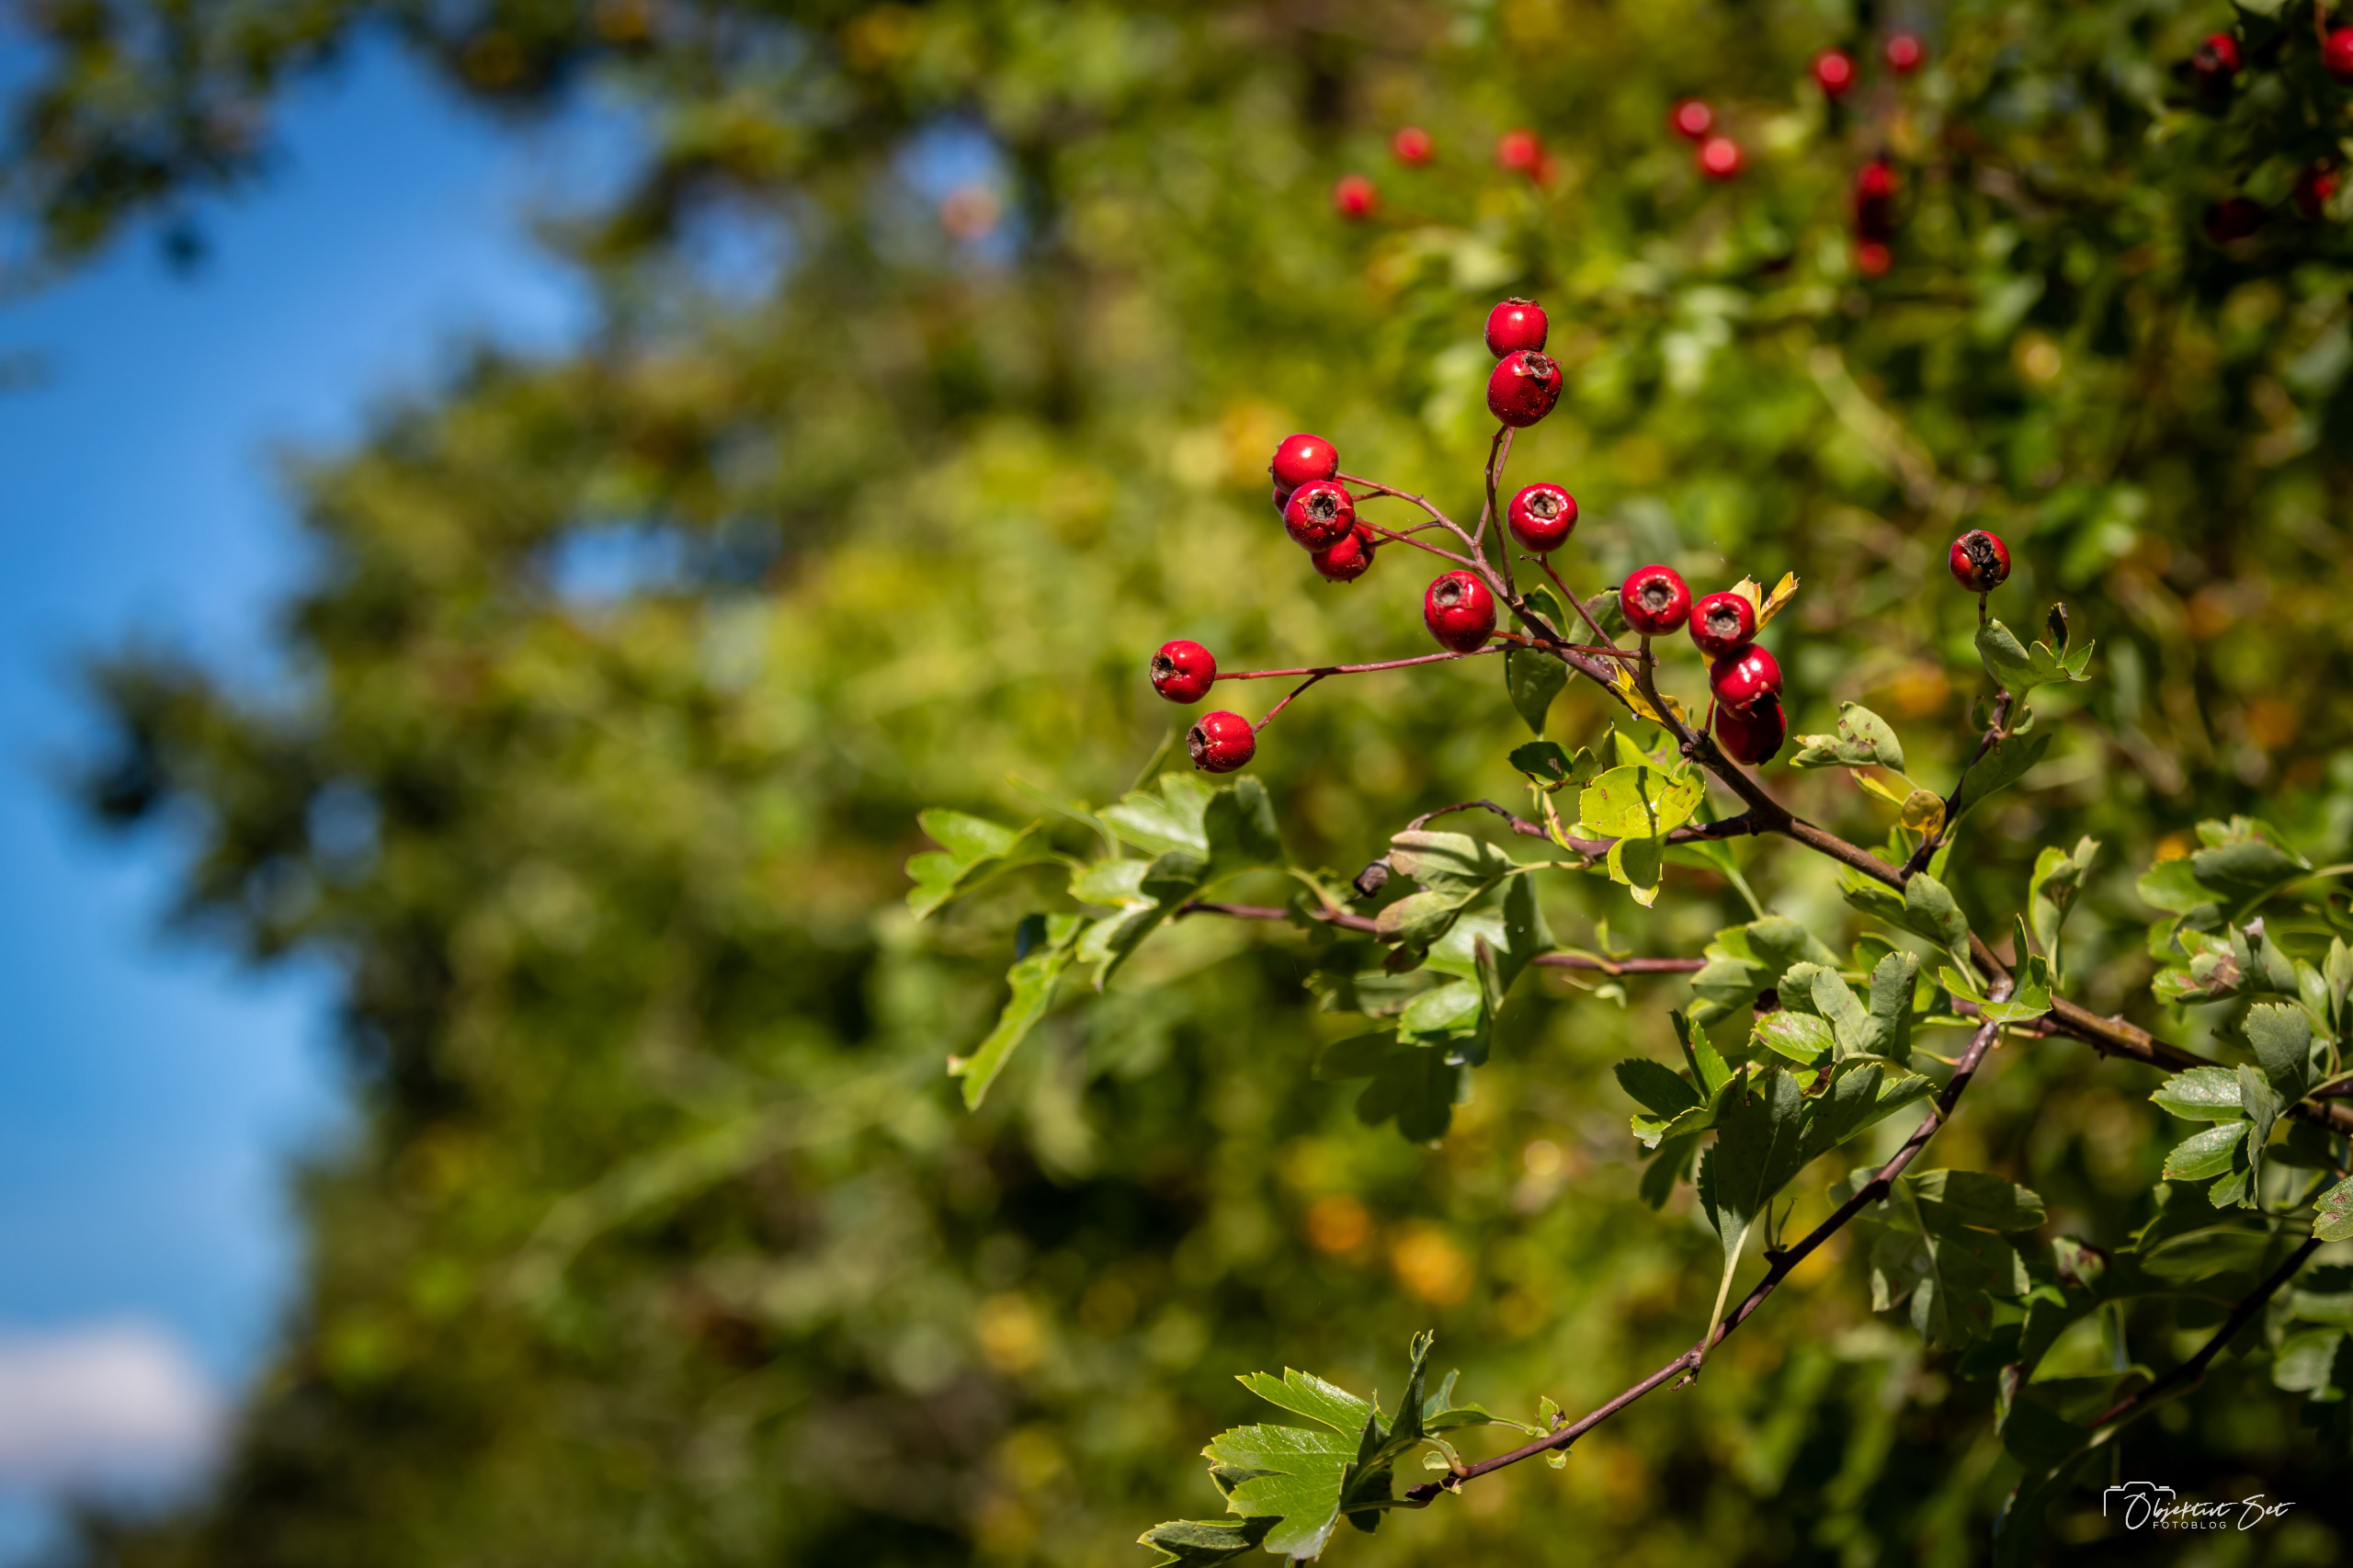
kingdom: Plantae
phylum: Tracheophyta
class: Magnoliopsida
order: Rosales
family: Rosaceae
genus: Crataegus
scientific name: Crataegus media
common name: Almindelig hvidtjørn × engriflet hvidtjørn
